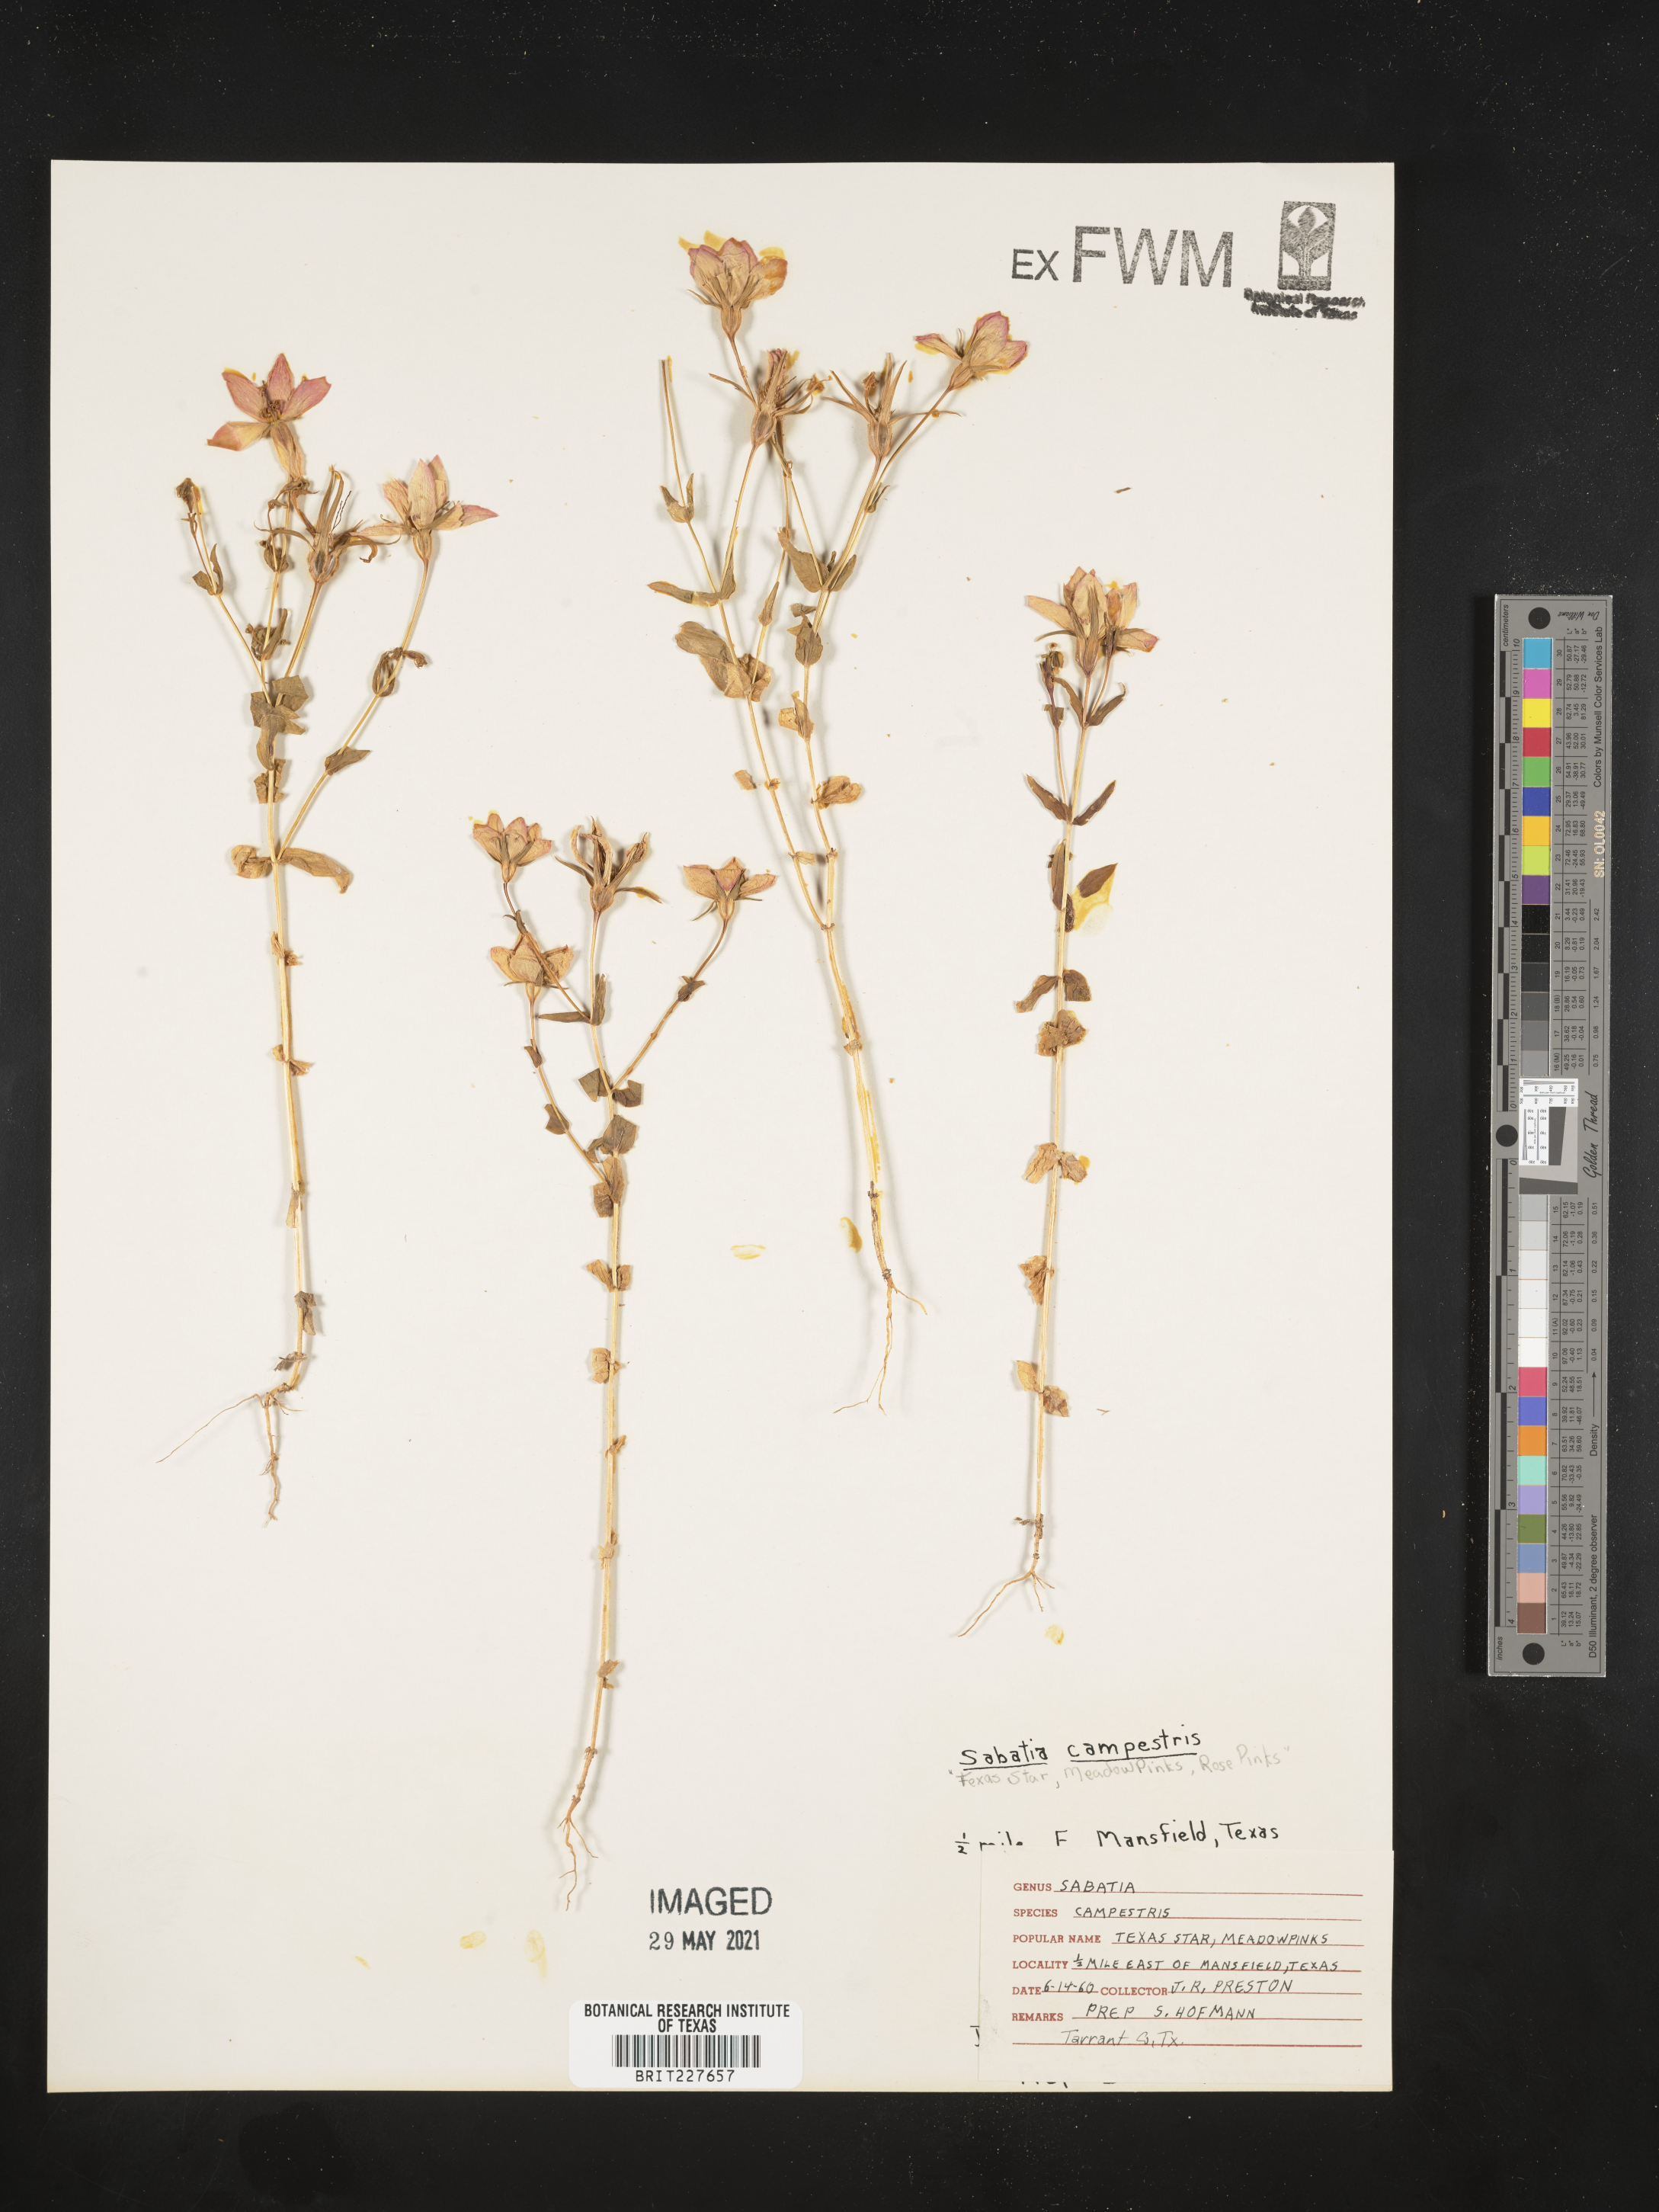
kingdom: Plantae
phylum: Tracheophyta
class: Magnoliopsida
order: Gentianales
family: Gentianaceae
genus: Sabatia
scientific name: Sabatia campestris
